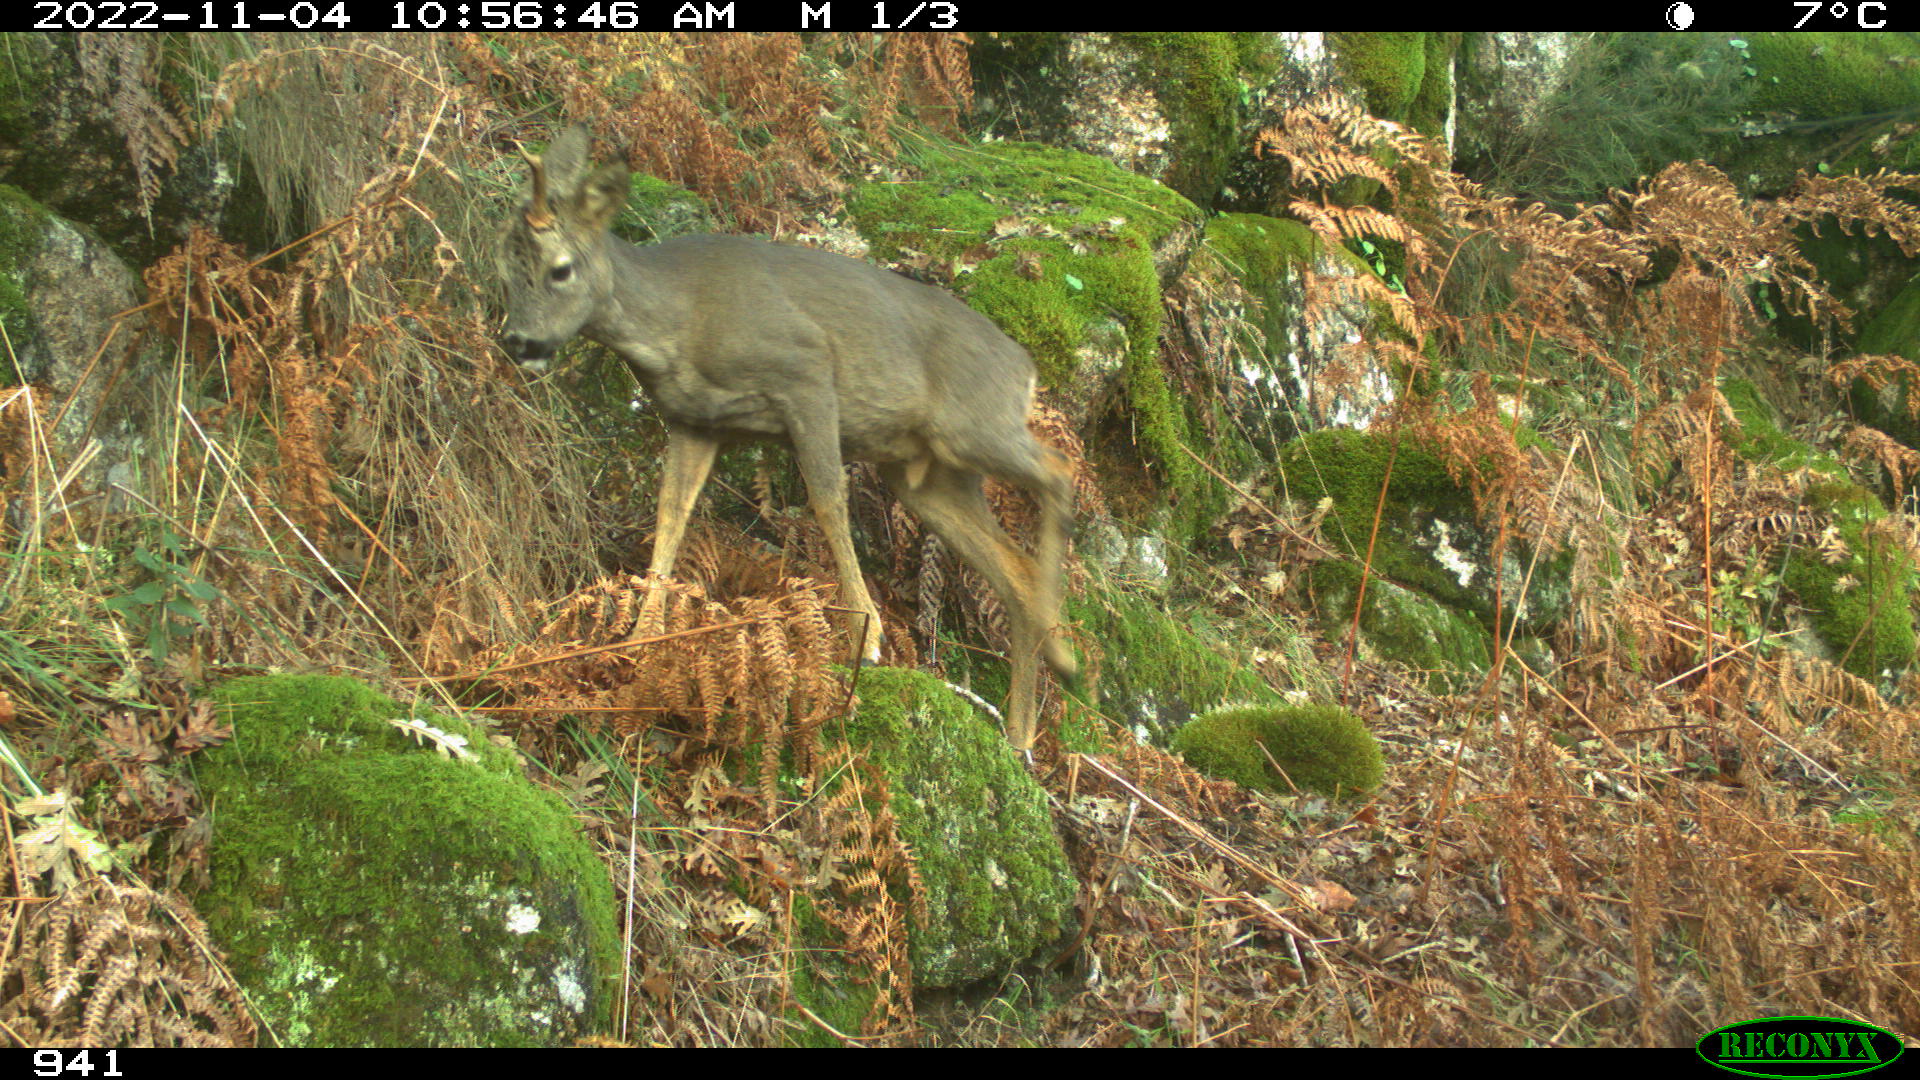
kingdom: Animalia
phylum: Chordata
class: Mammalia
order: Artiodactyla
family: Cervidae
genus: Capreolus
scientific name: Capreolus capreolus
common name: Western roe deer
